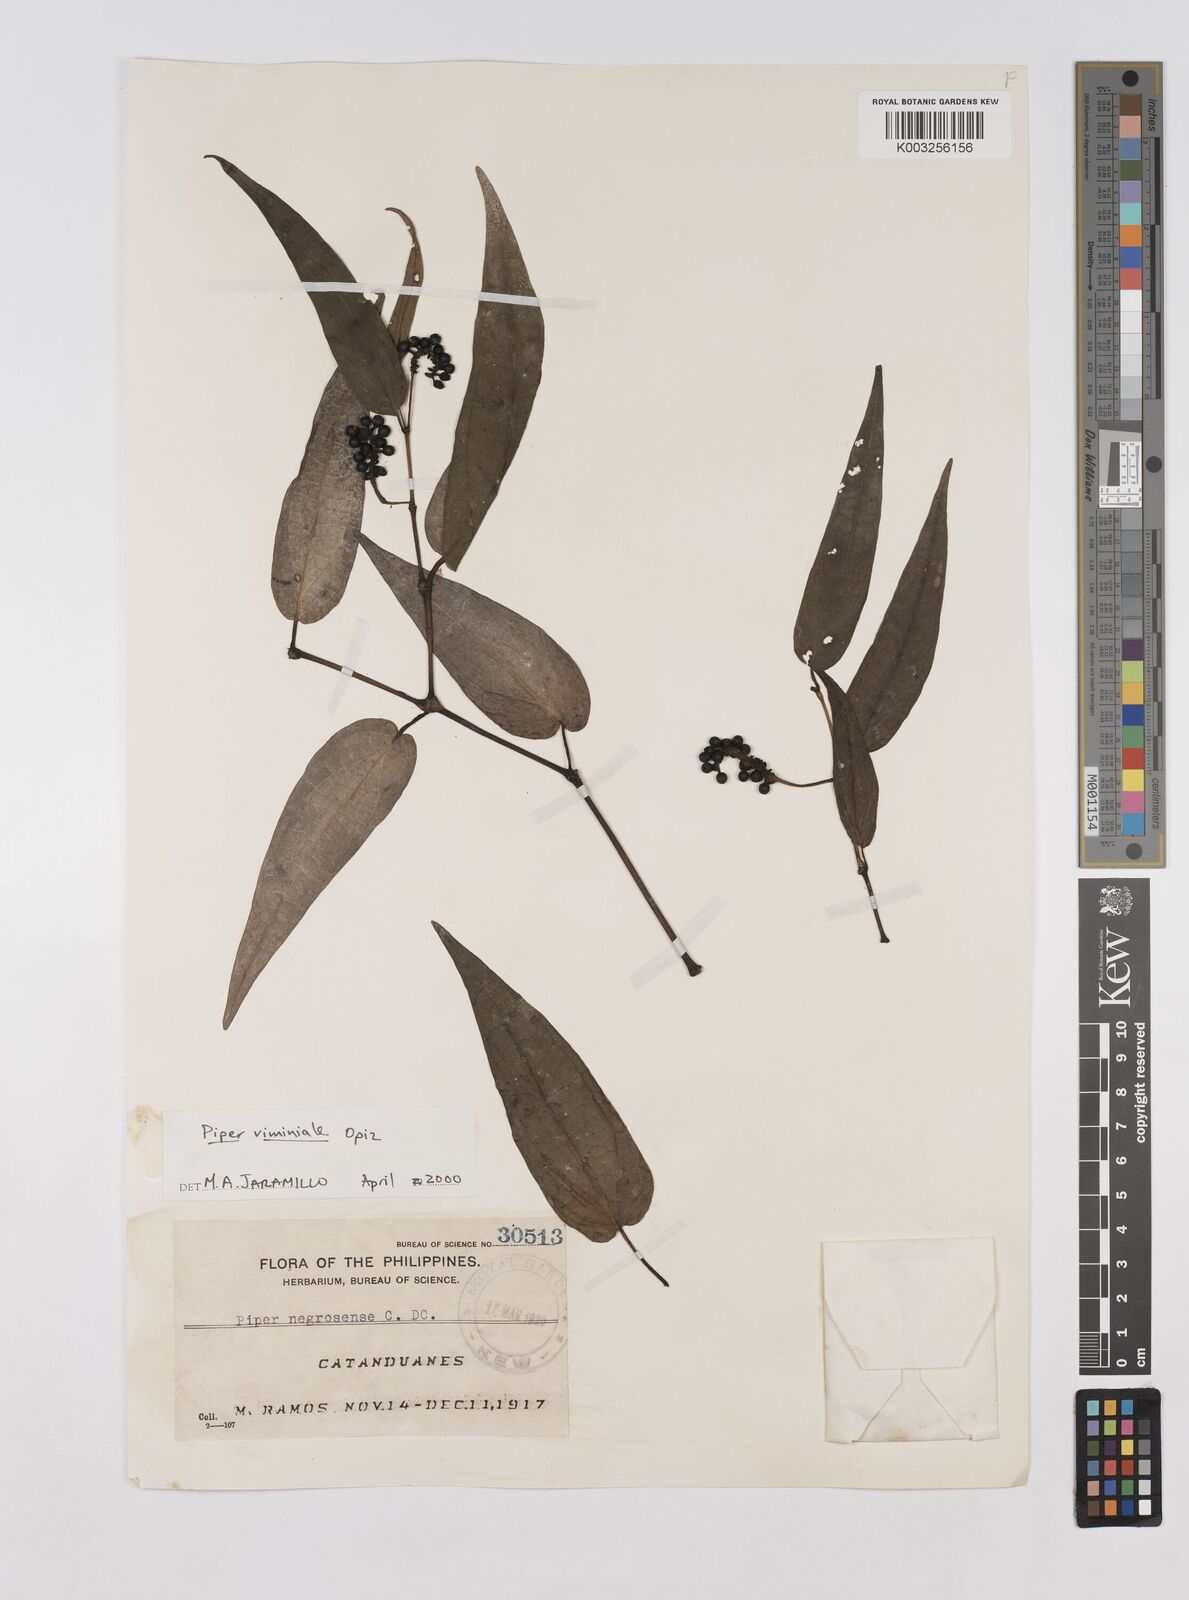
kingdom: Plantae
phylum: Tracheophyta
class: Magnoliopsida
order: Piperales
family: Piperaceae
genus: Piper
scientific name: Piper lanatum
